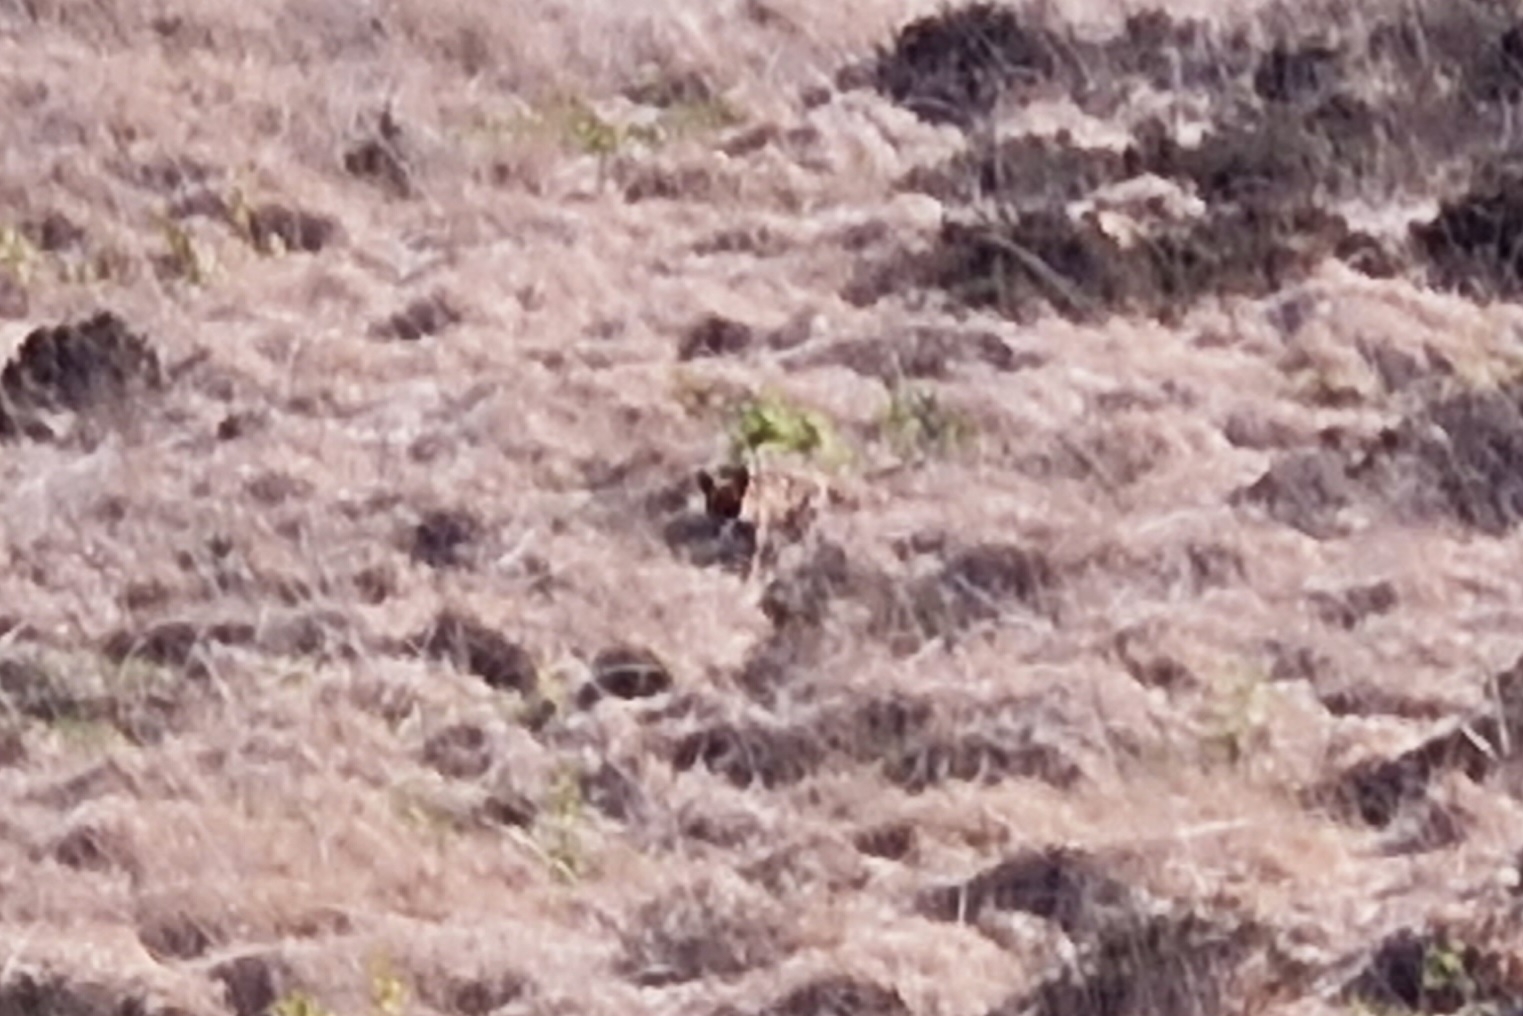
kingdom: Animalia
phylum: Chordata
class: Mammalia
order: Carnivora
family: Canidae
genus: Vulpes
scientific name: Vulpes vulpes
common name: Ræv
